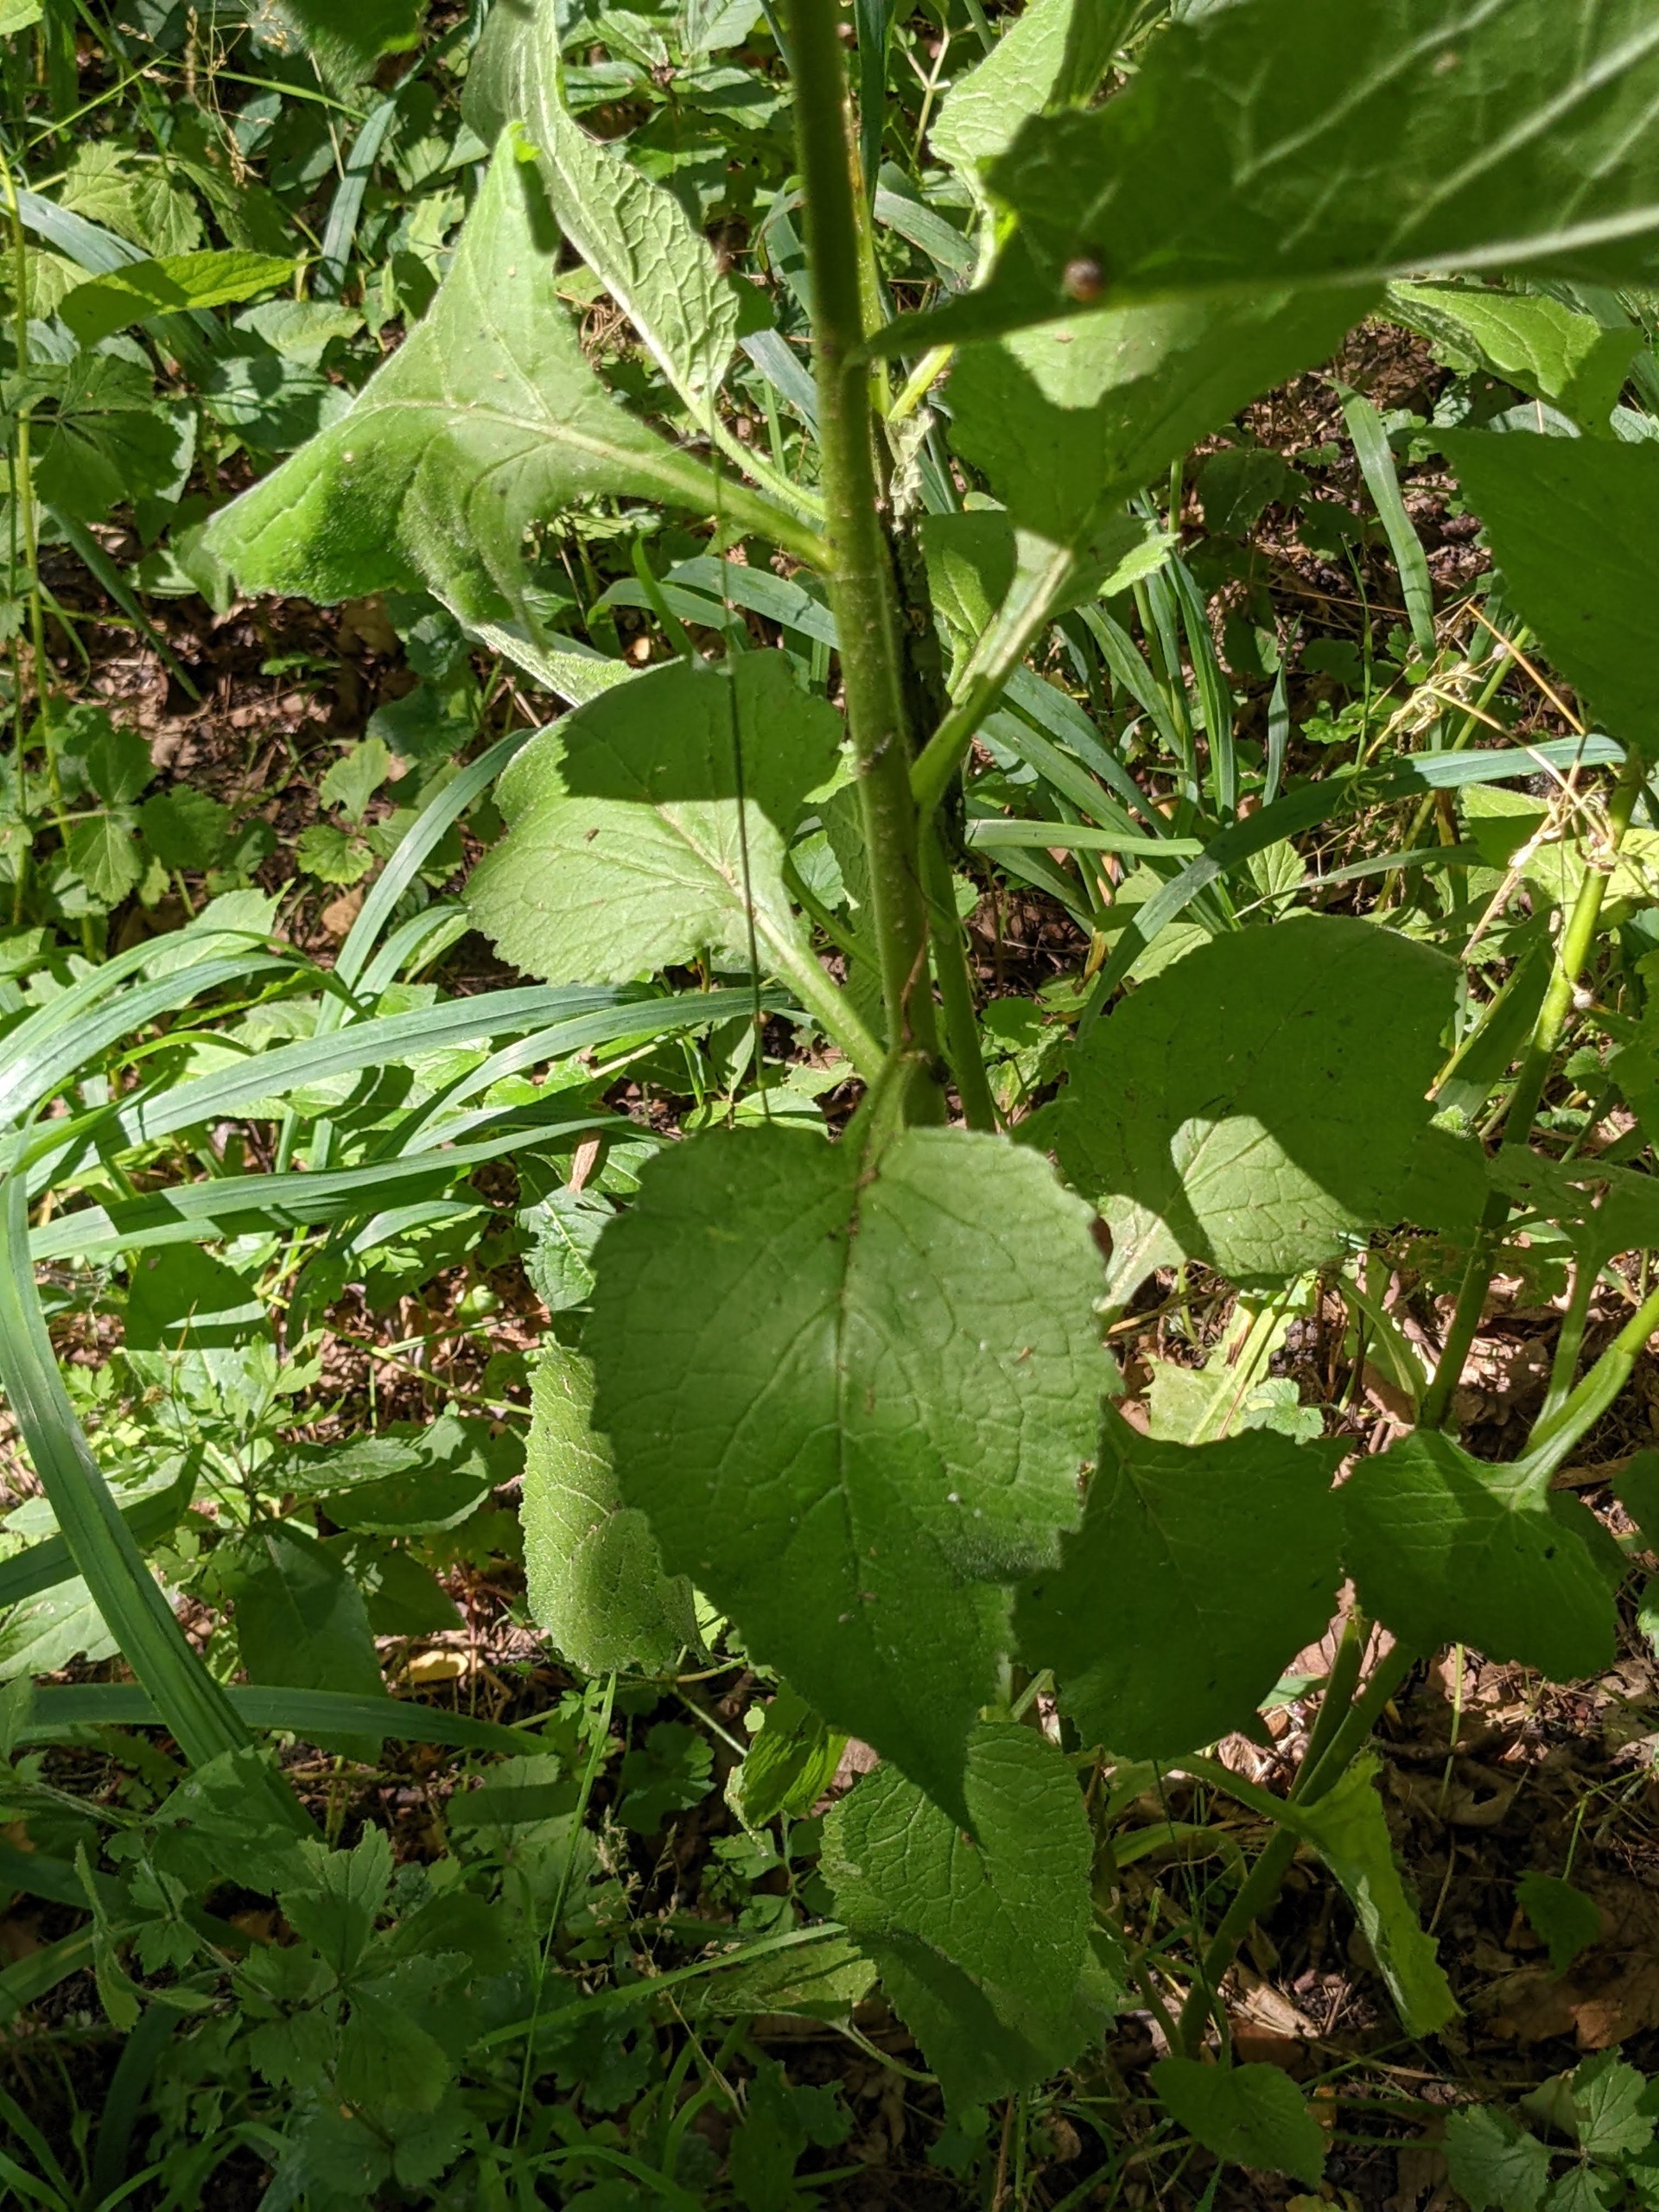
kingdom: Plantae
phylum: Tracheophyta
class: Magnoliopsida
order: Asterales
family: Campanulaceae
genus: Campanula
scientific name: Campanula latifolia
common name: Bredbladet klokke
